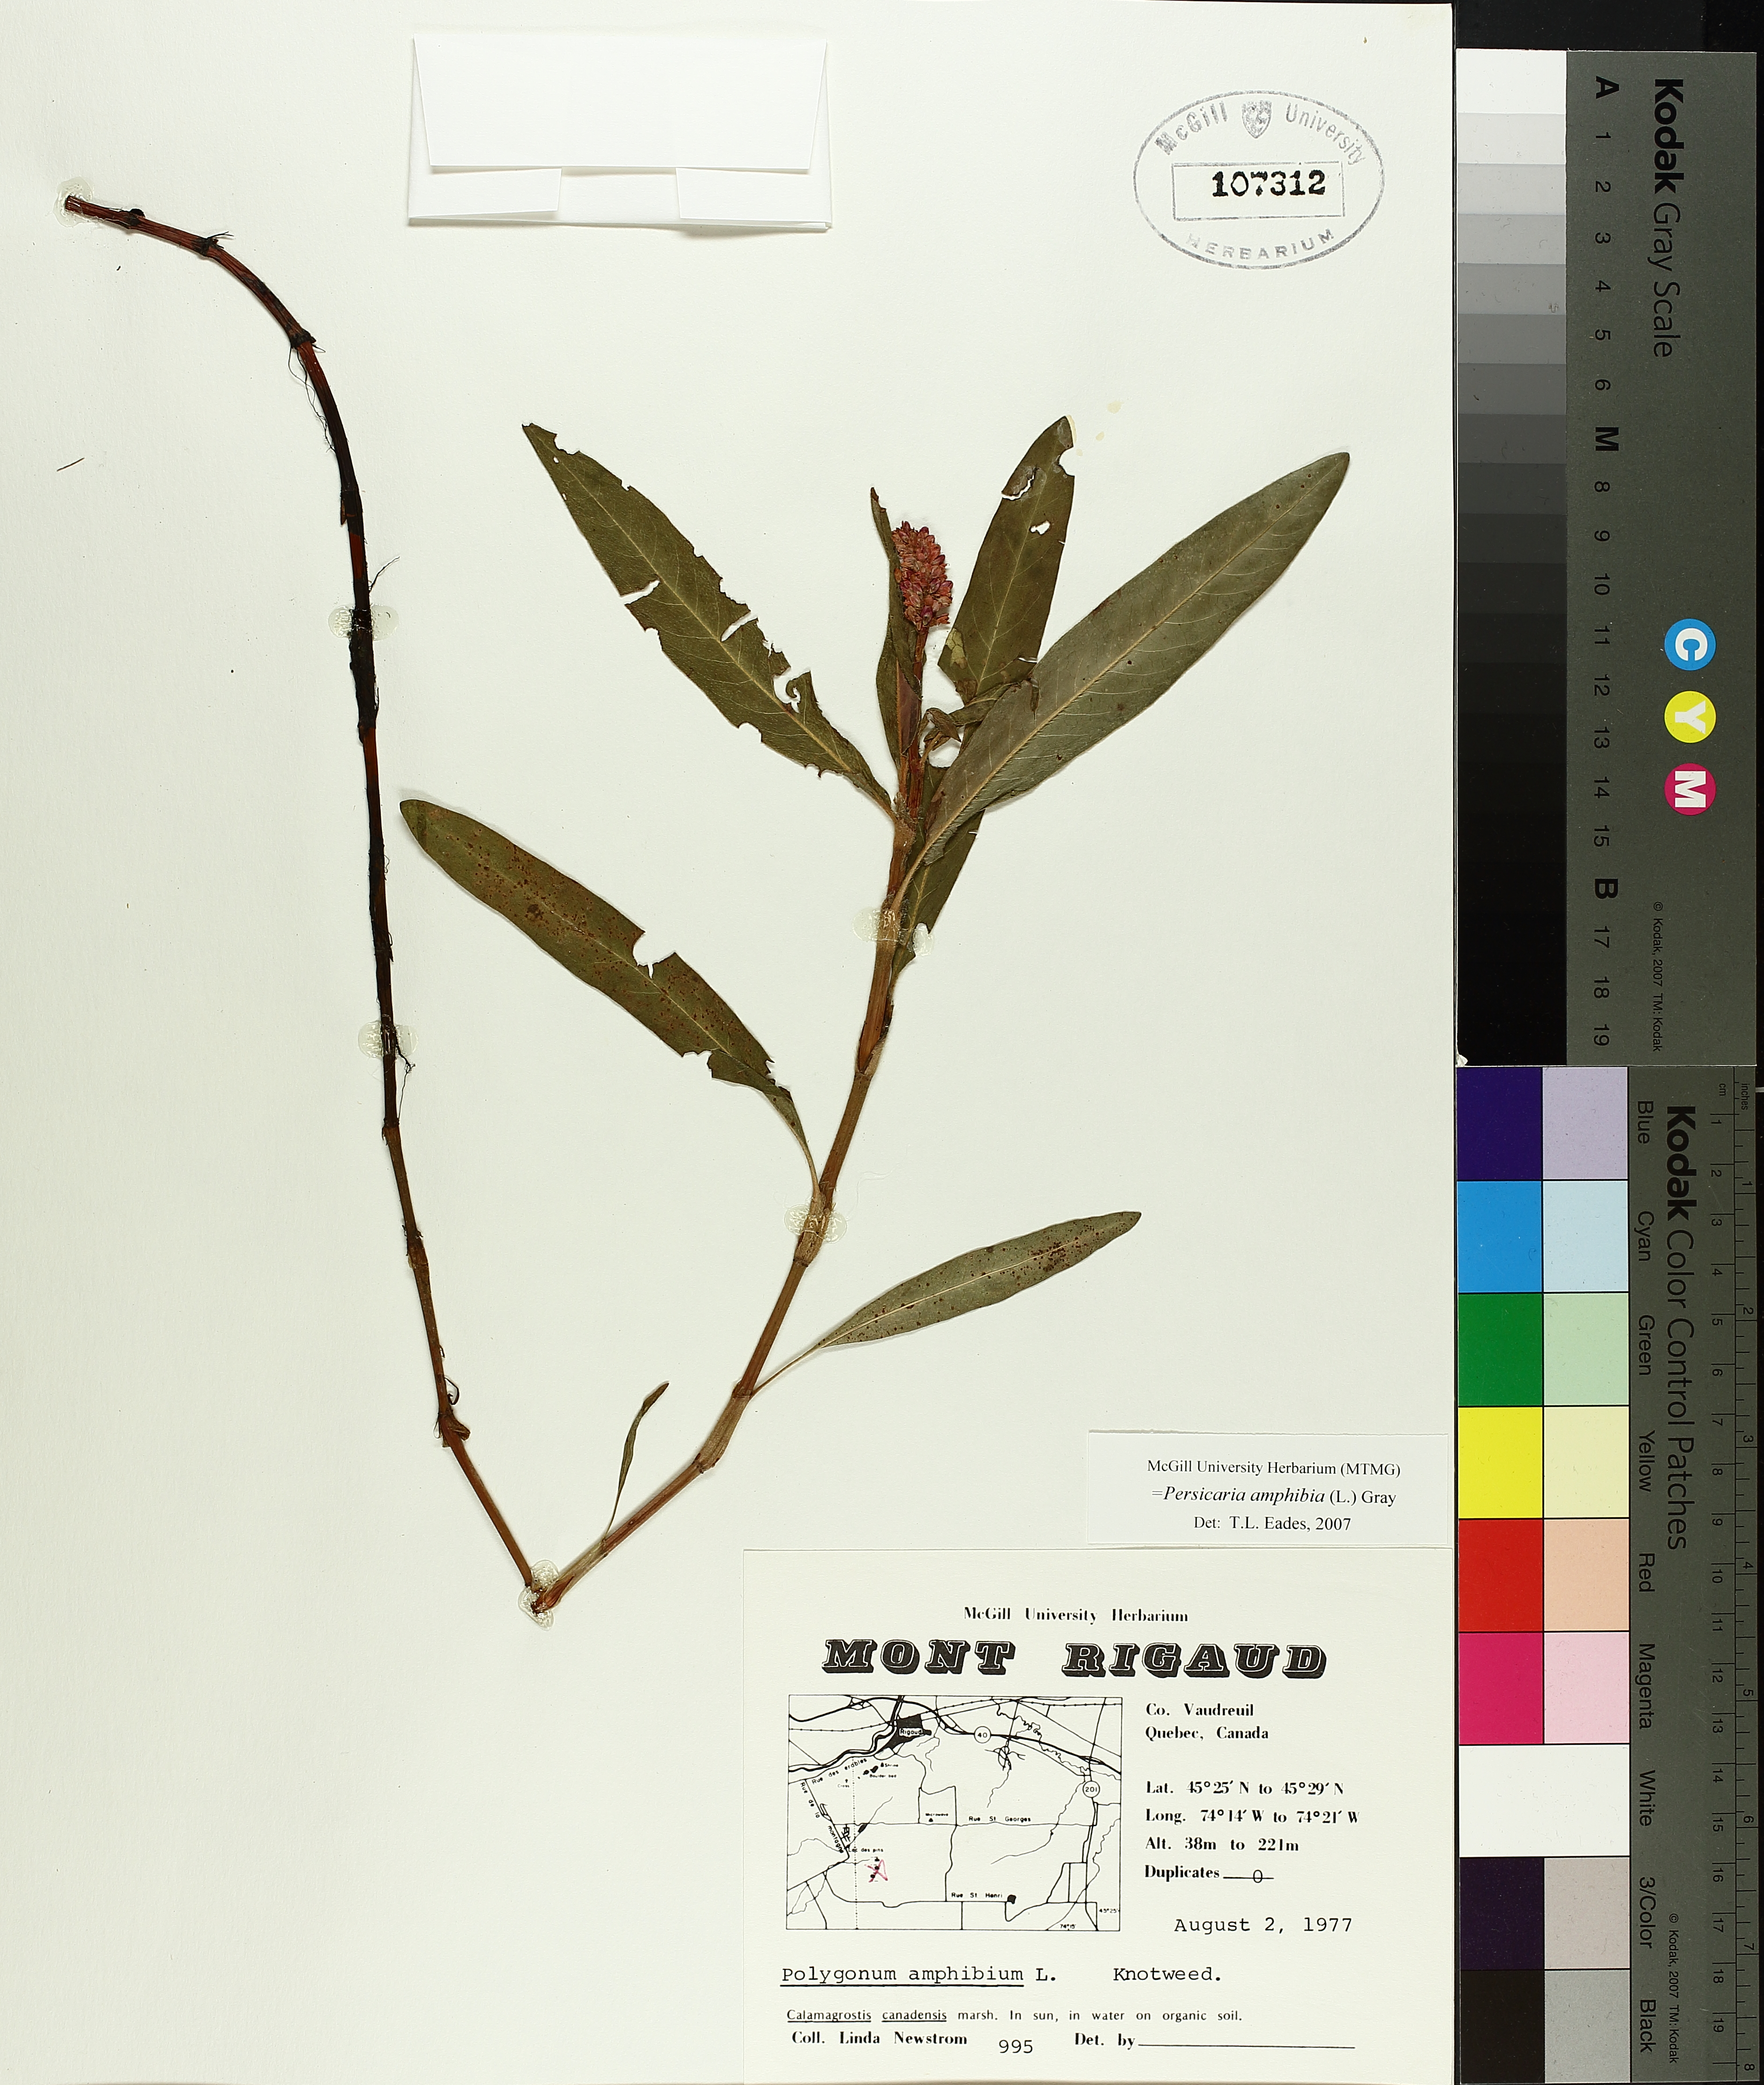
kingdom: Plantae
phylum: Tracheophyta
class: Magnoliopsida
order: Caryophyllales
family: Polygonaceae
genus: Persicaria
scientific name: Persicaria amphibia
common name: Amphibious bistort
